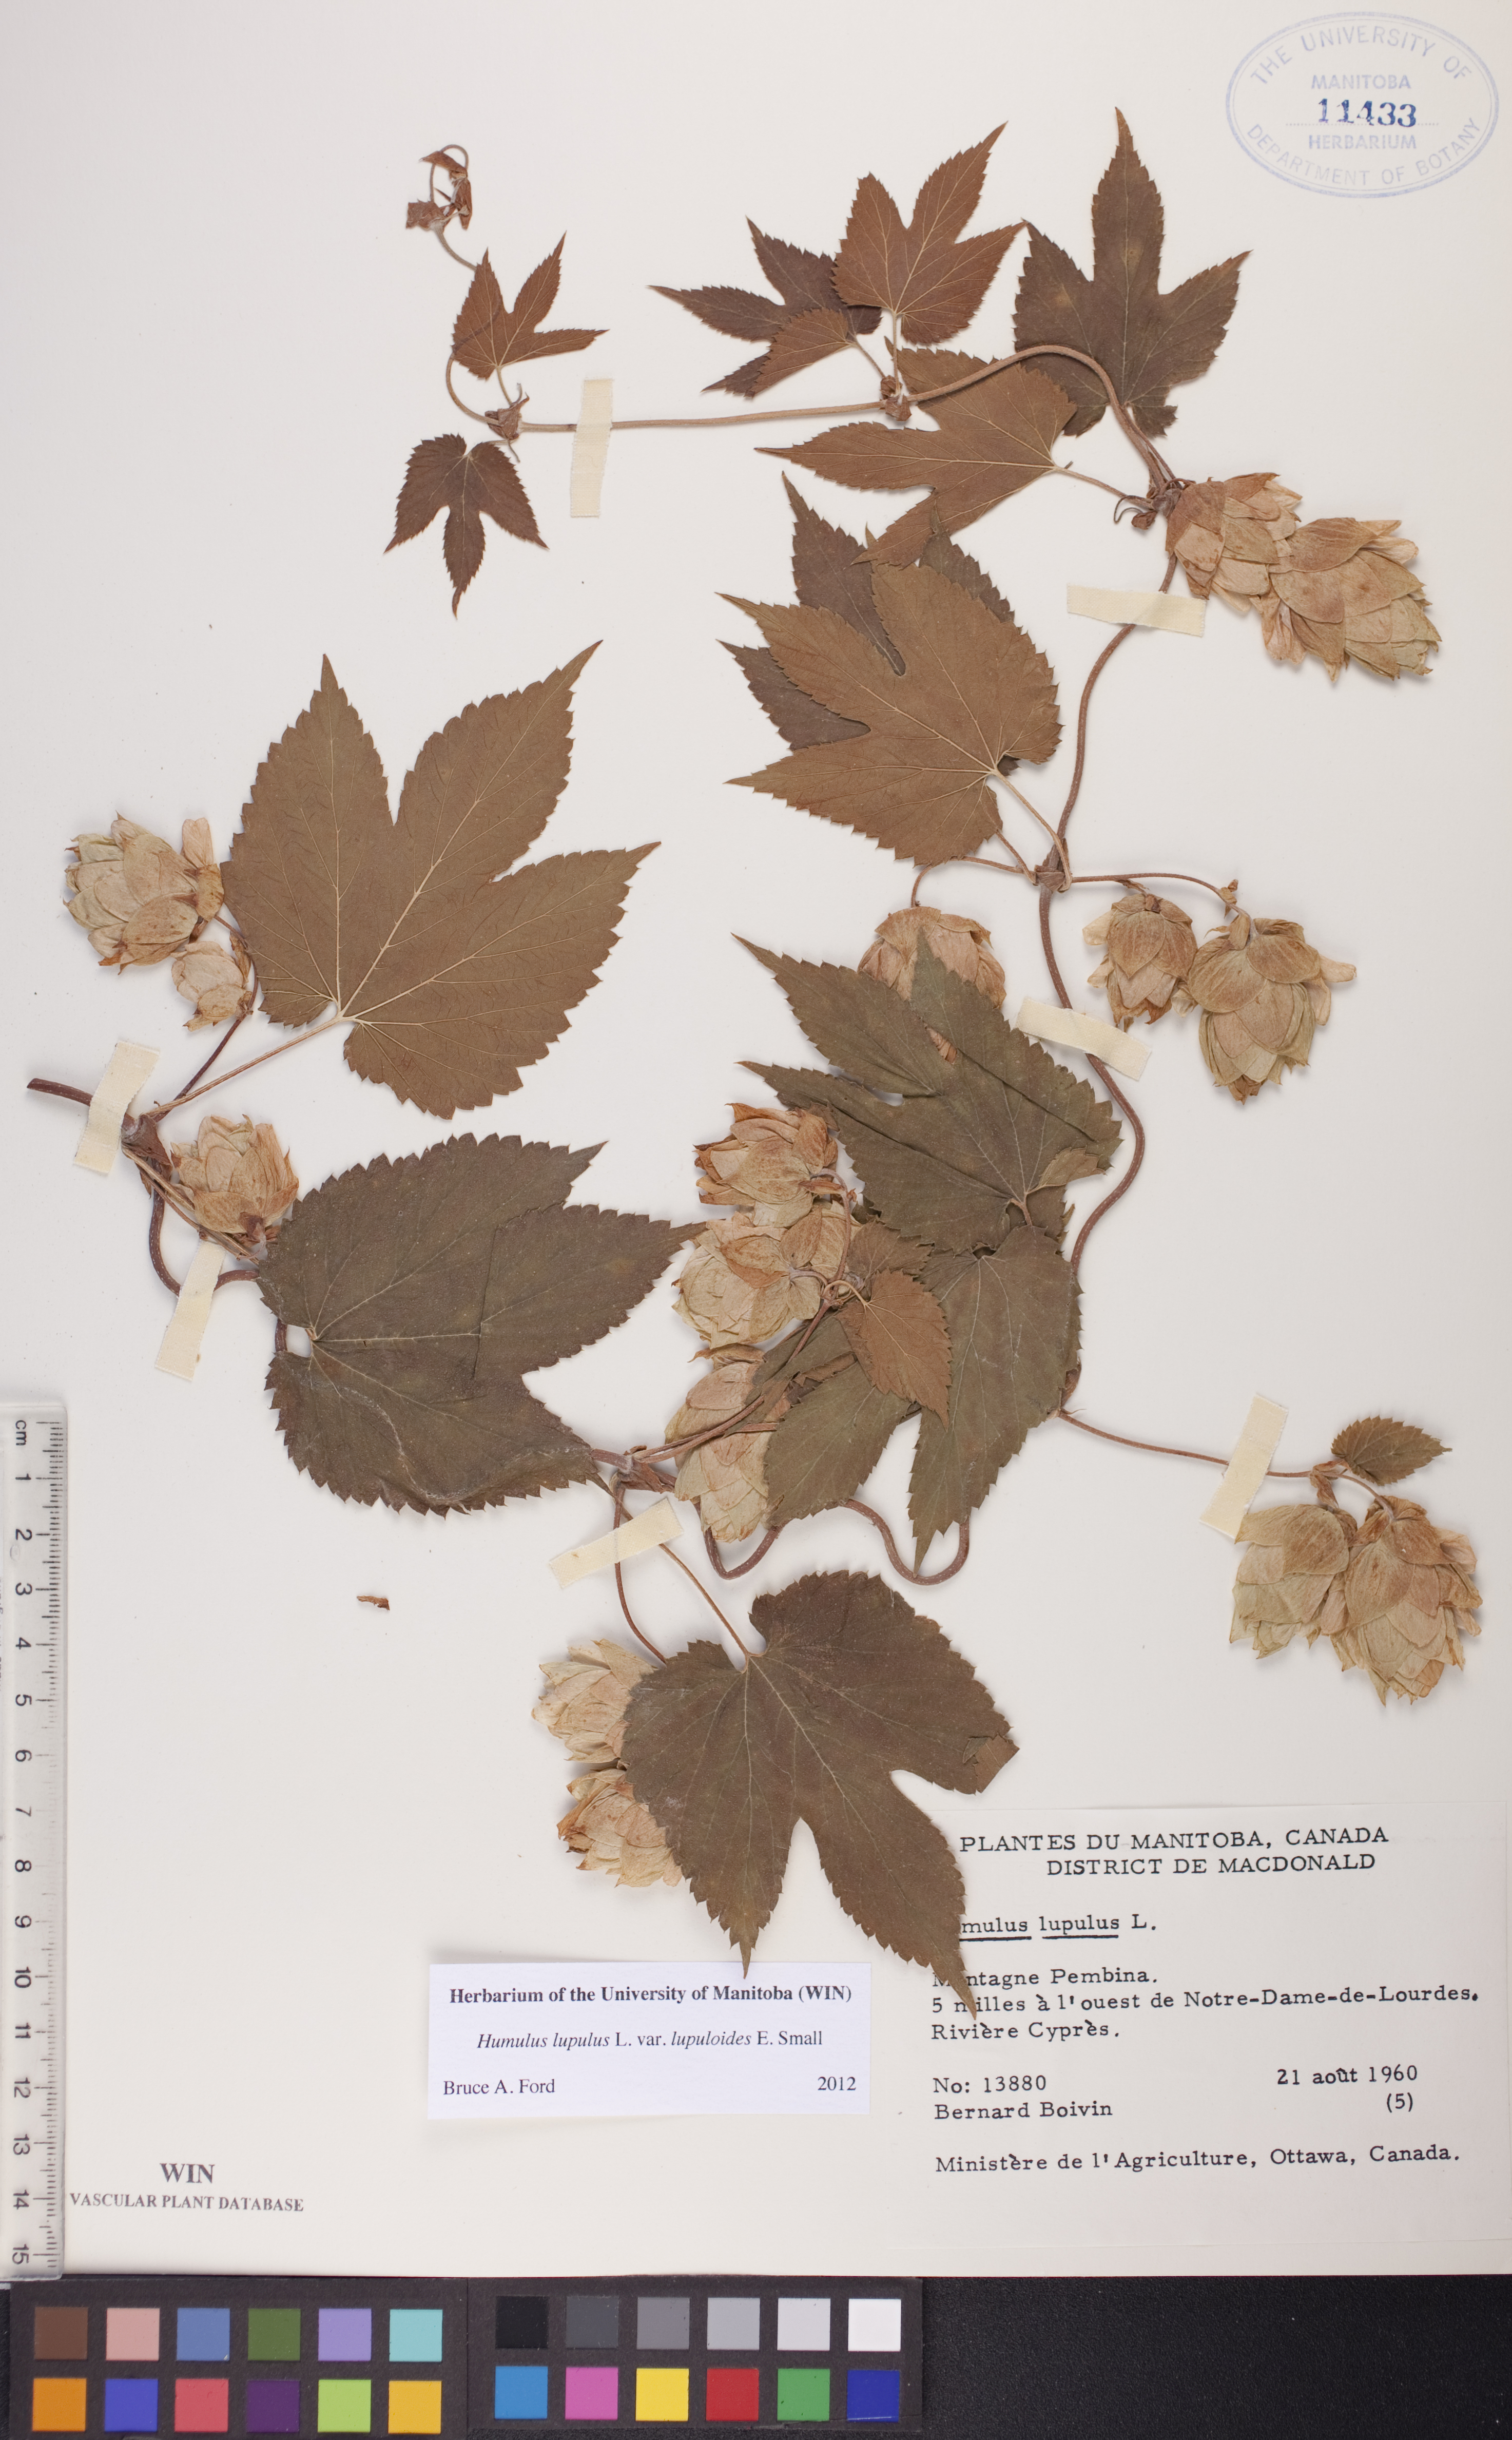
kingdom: Plantae
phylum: Tracheophyta
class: Magnoliopsida
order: Rosales
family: Cannabaceae
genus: Humulus
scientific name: Humulus americanus
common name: American hops
